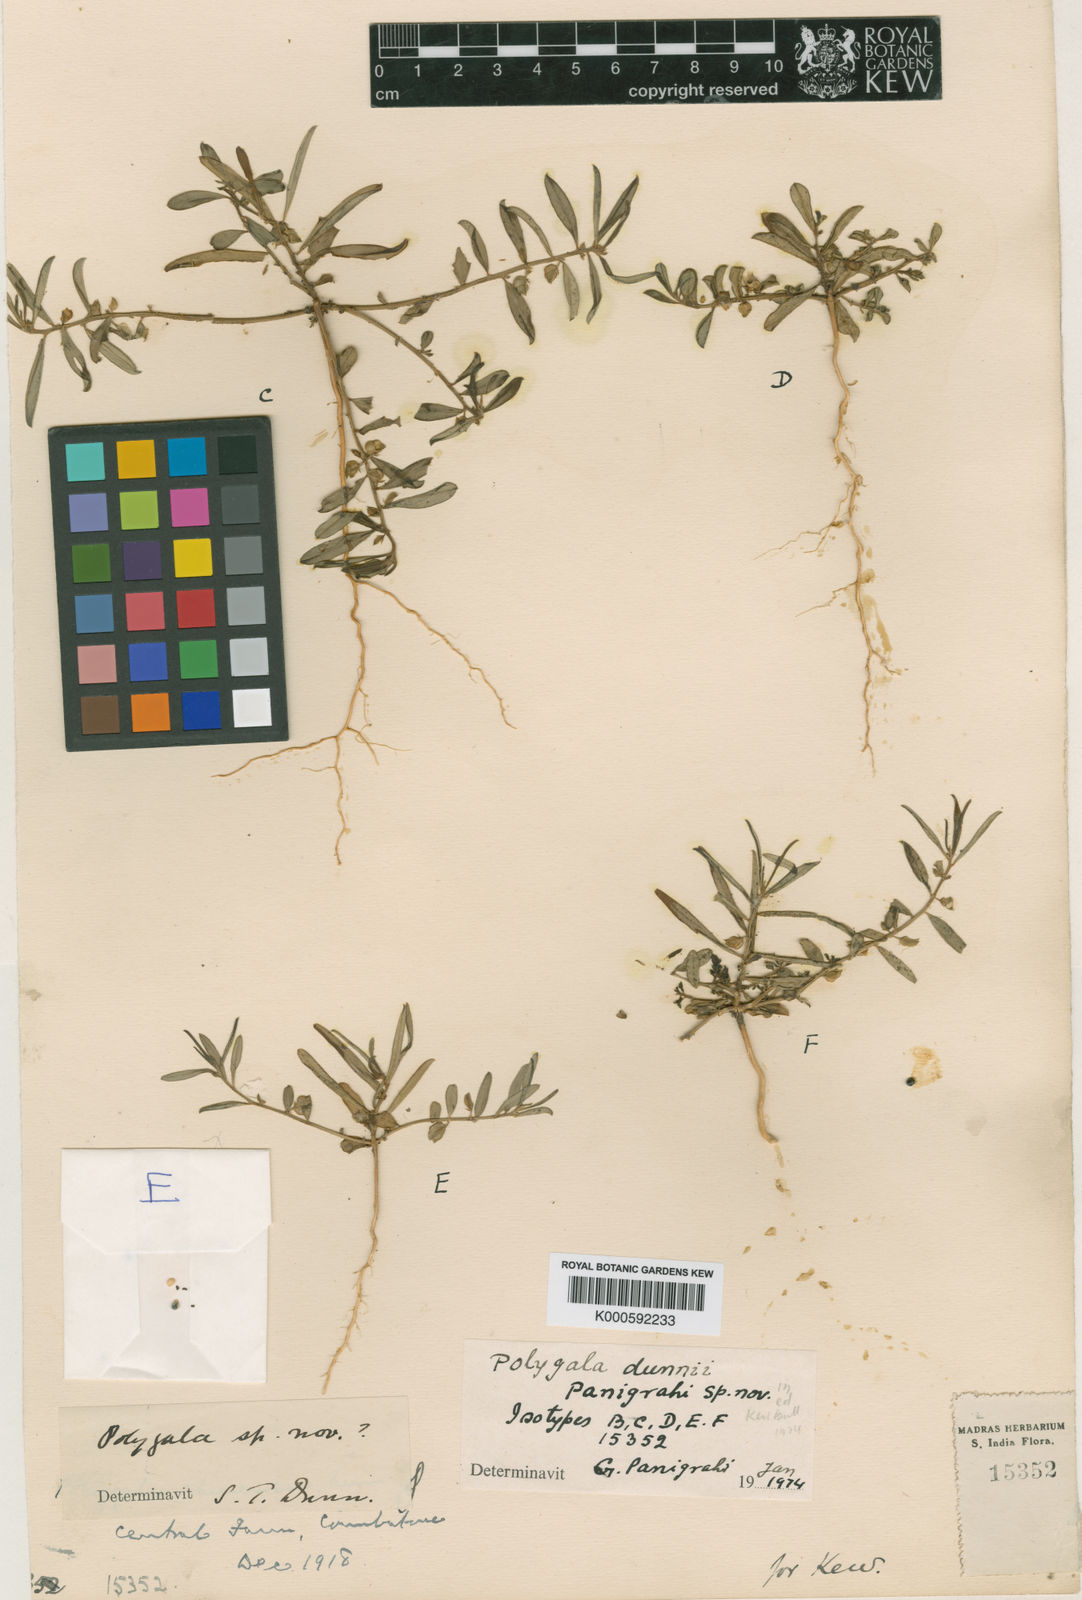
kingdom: Plantae
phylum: Tracheophyta
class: Magnoliopsida
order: Fabales
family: Polygalaceae
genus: Polygala
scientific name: Polygala jacobii
